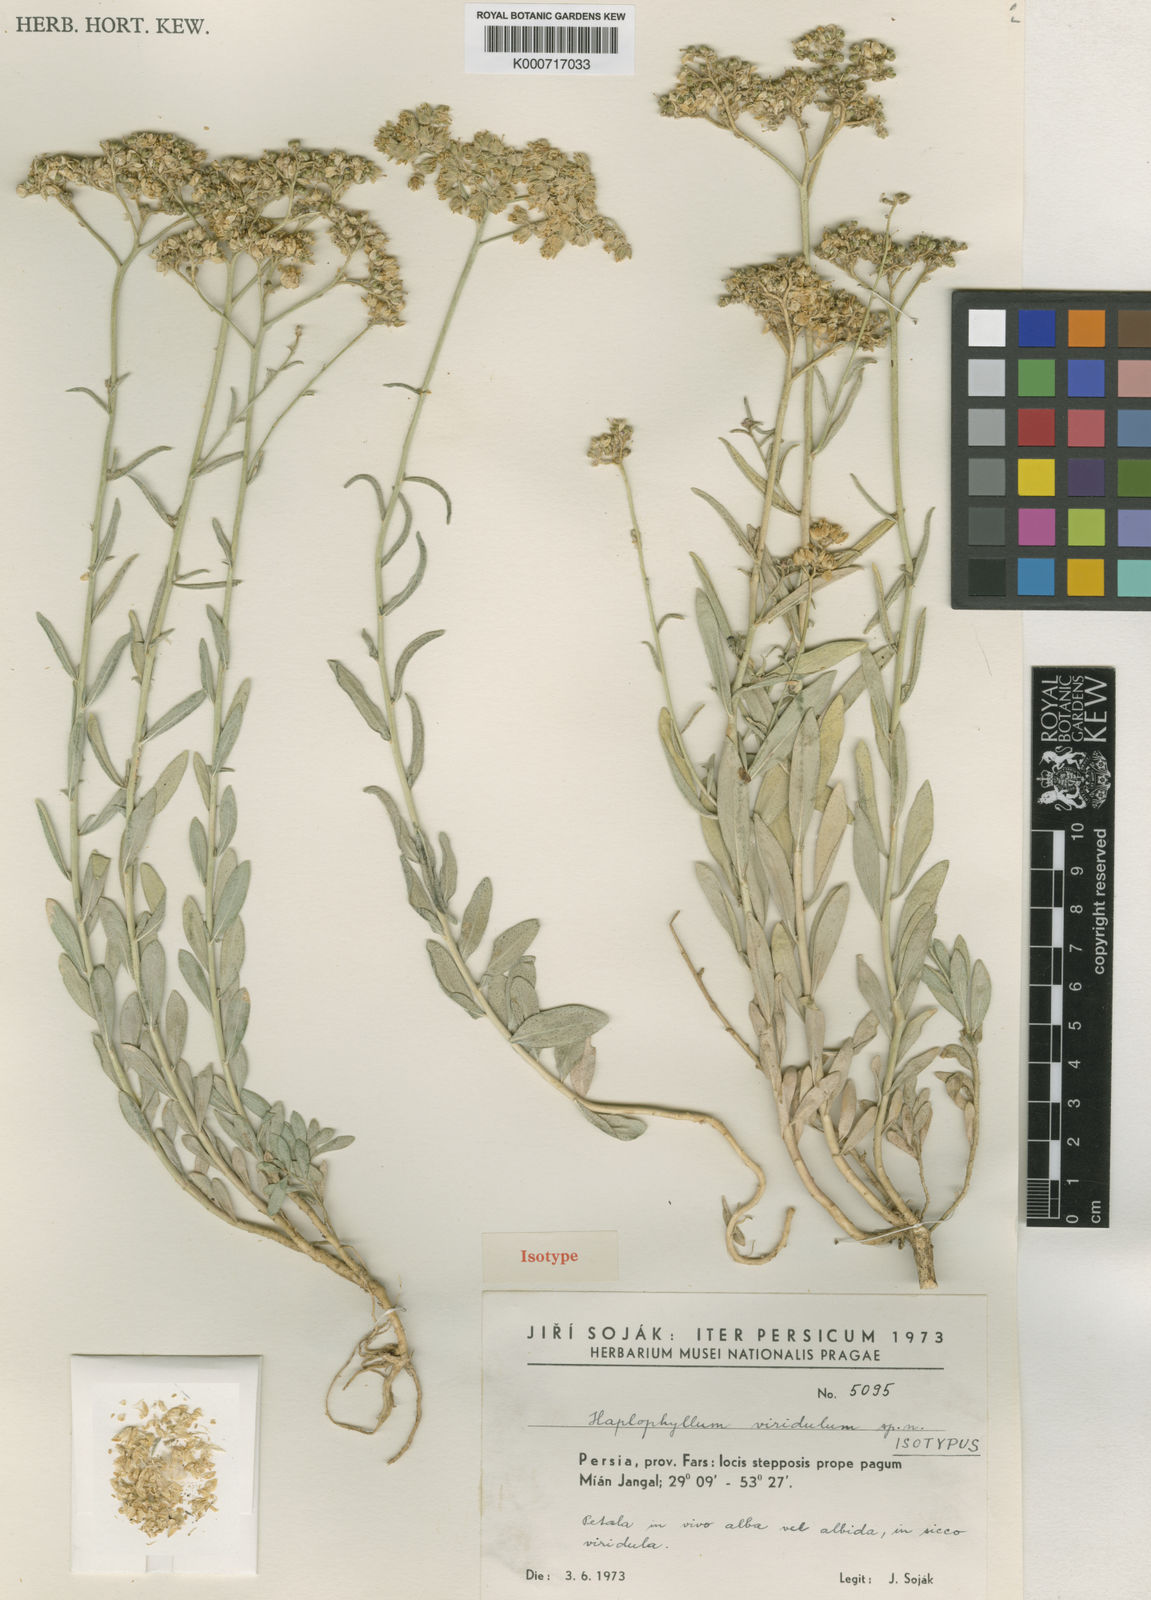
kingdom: Plantae
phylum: Tracheophyta
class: Magnoliopsida
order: Sapindales
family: Rutaceae
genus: Haplophyllum
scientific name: Haplophyllum
